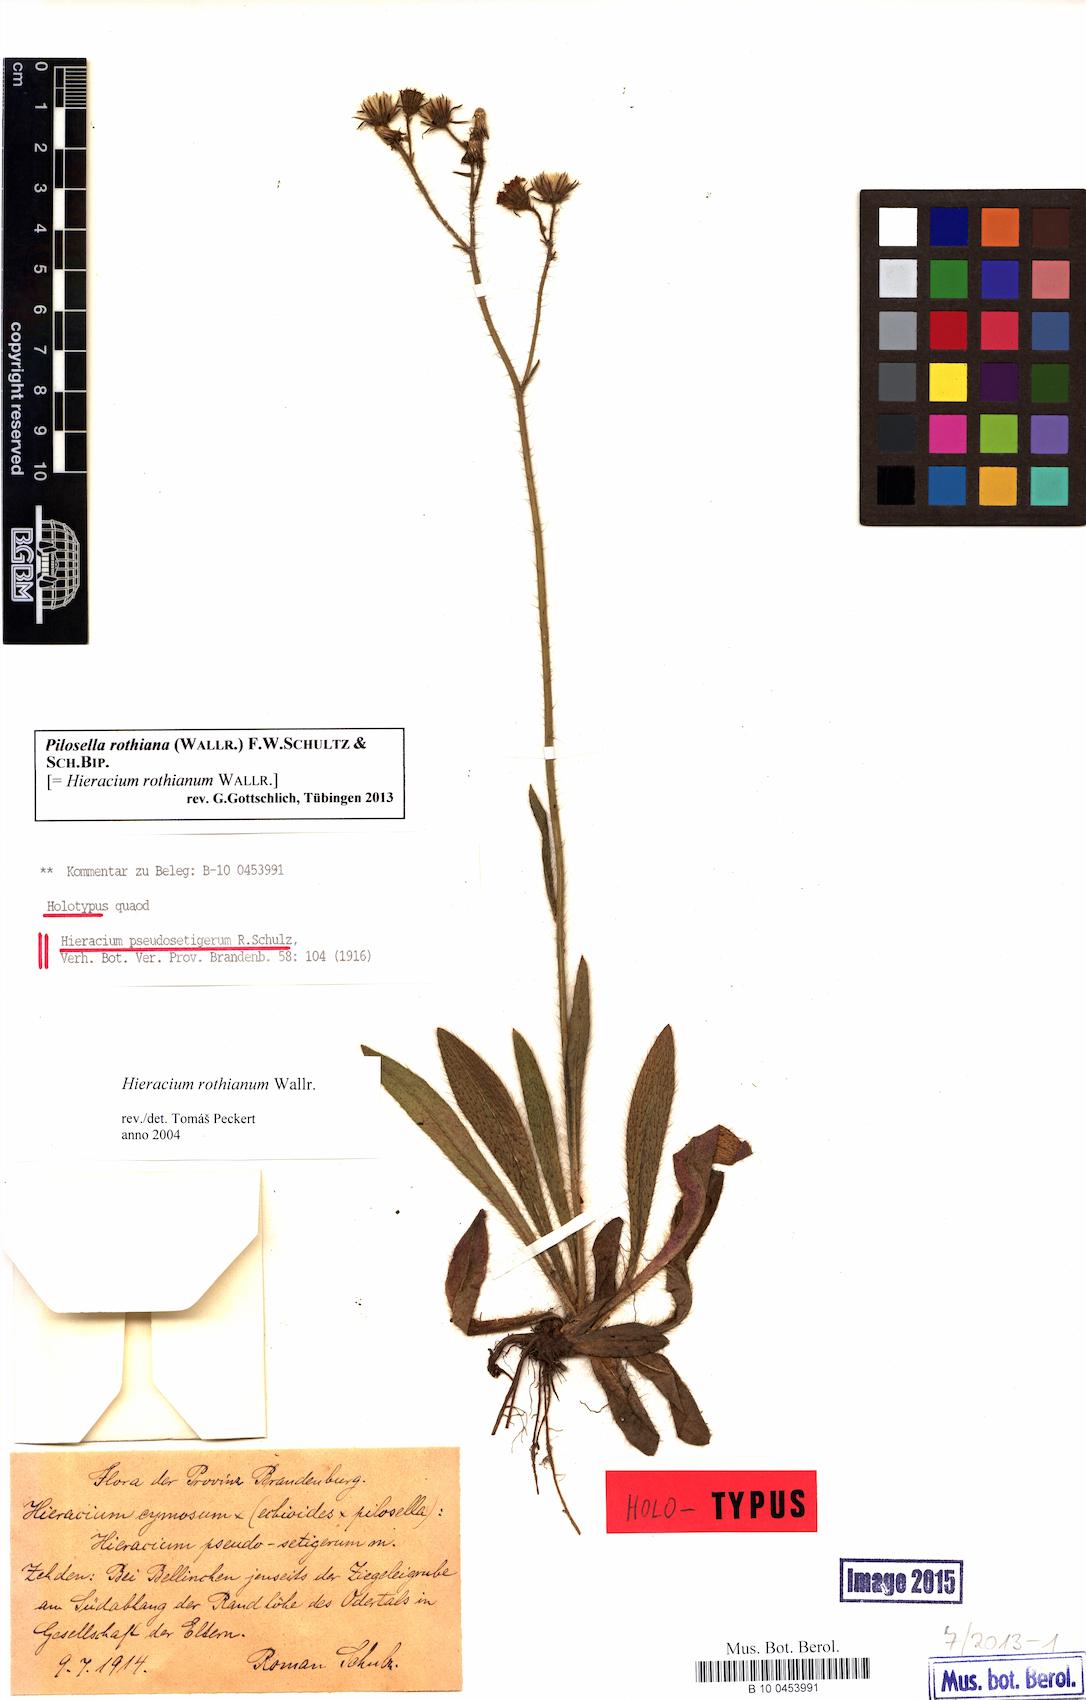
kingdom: Plantae
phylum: Tracheophyta
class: Magnoliopsida
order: Asterales
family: Asteraceae
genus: Pilosella
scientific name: Pilosella rothiana
